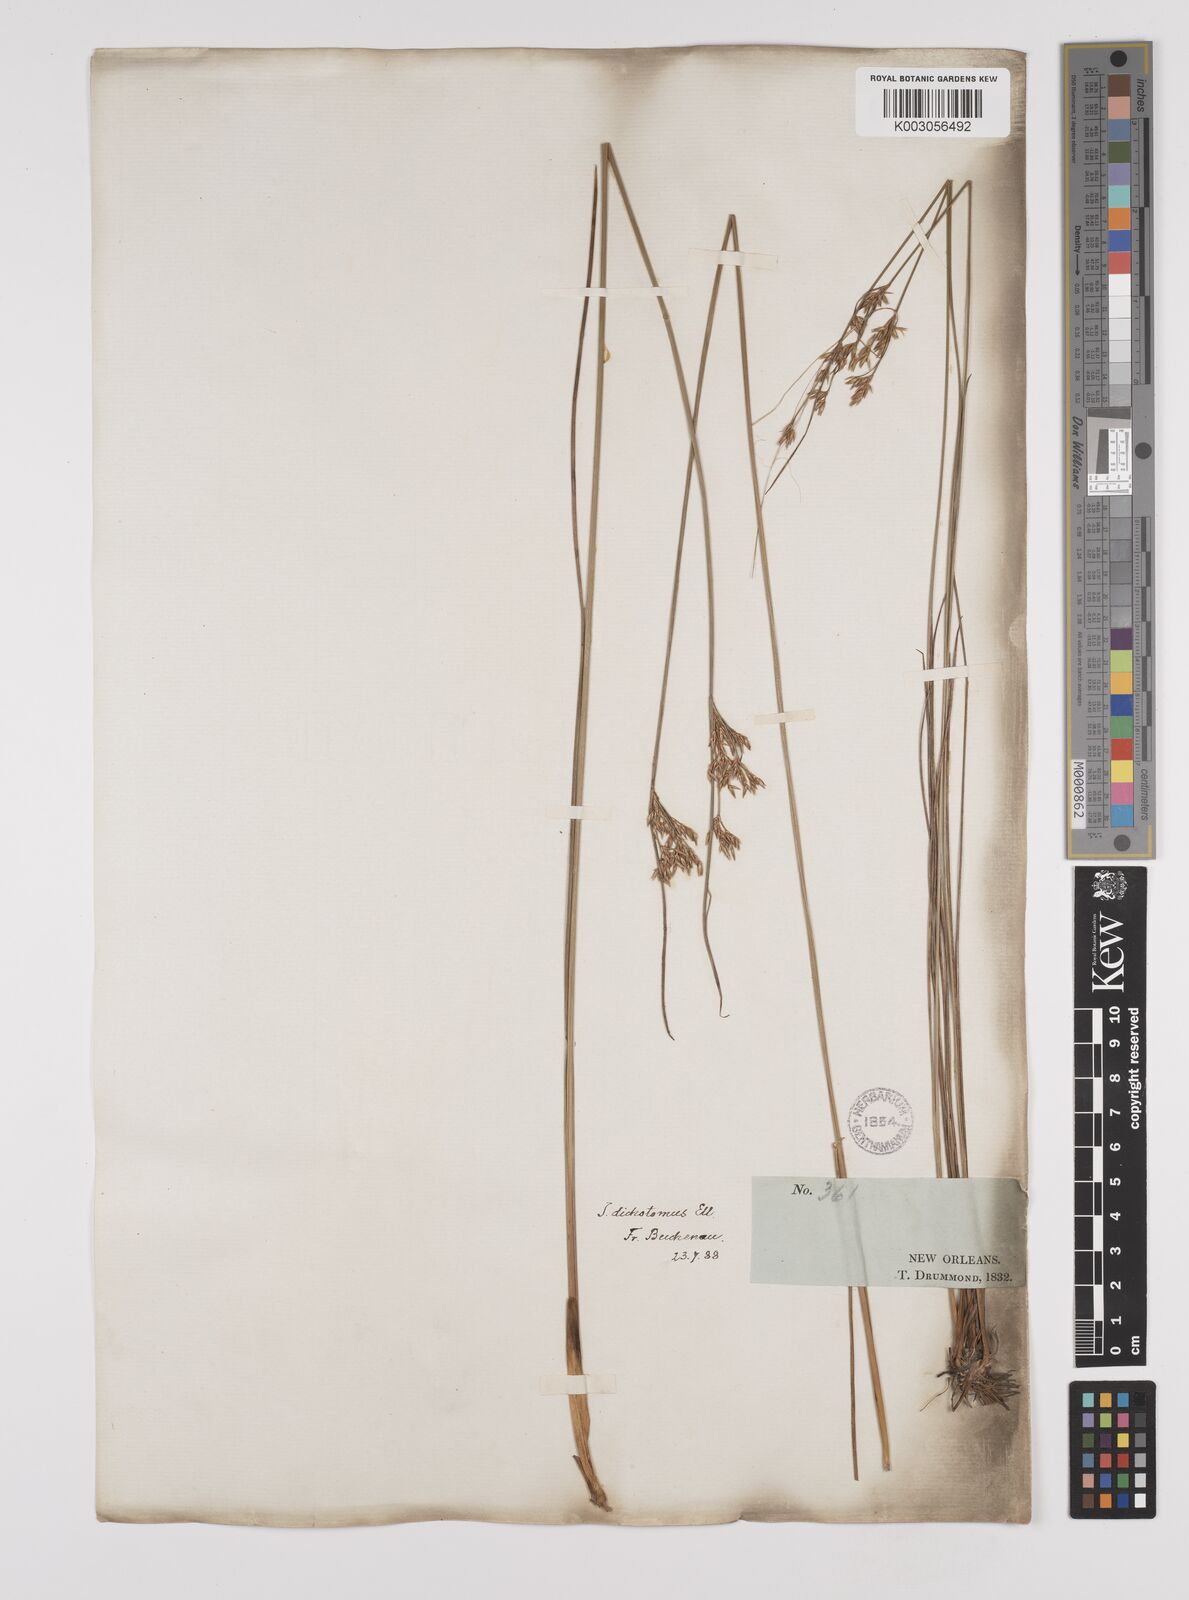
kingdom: Plantae
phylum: Tracheophyta
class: Liliopsida
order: Poales
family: Juncaceae
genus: Juncus
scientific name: Juncus dichotomus
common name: Forked rush
